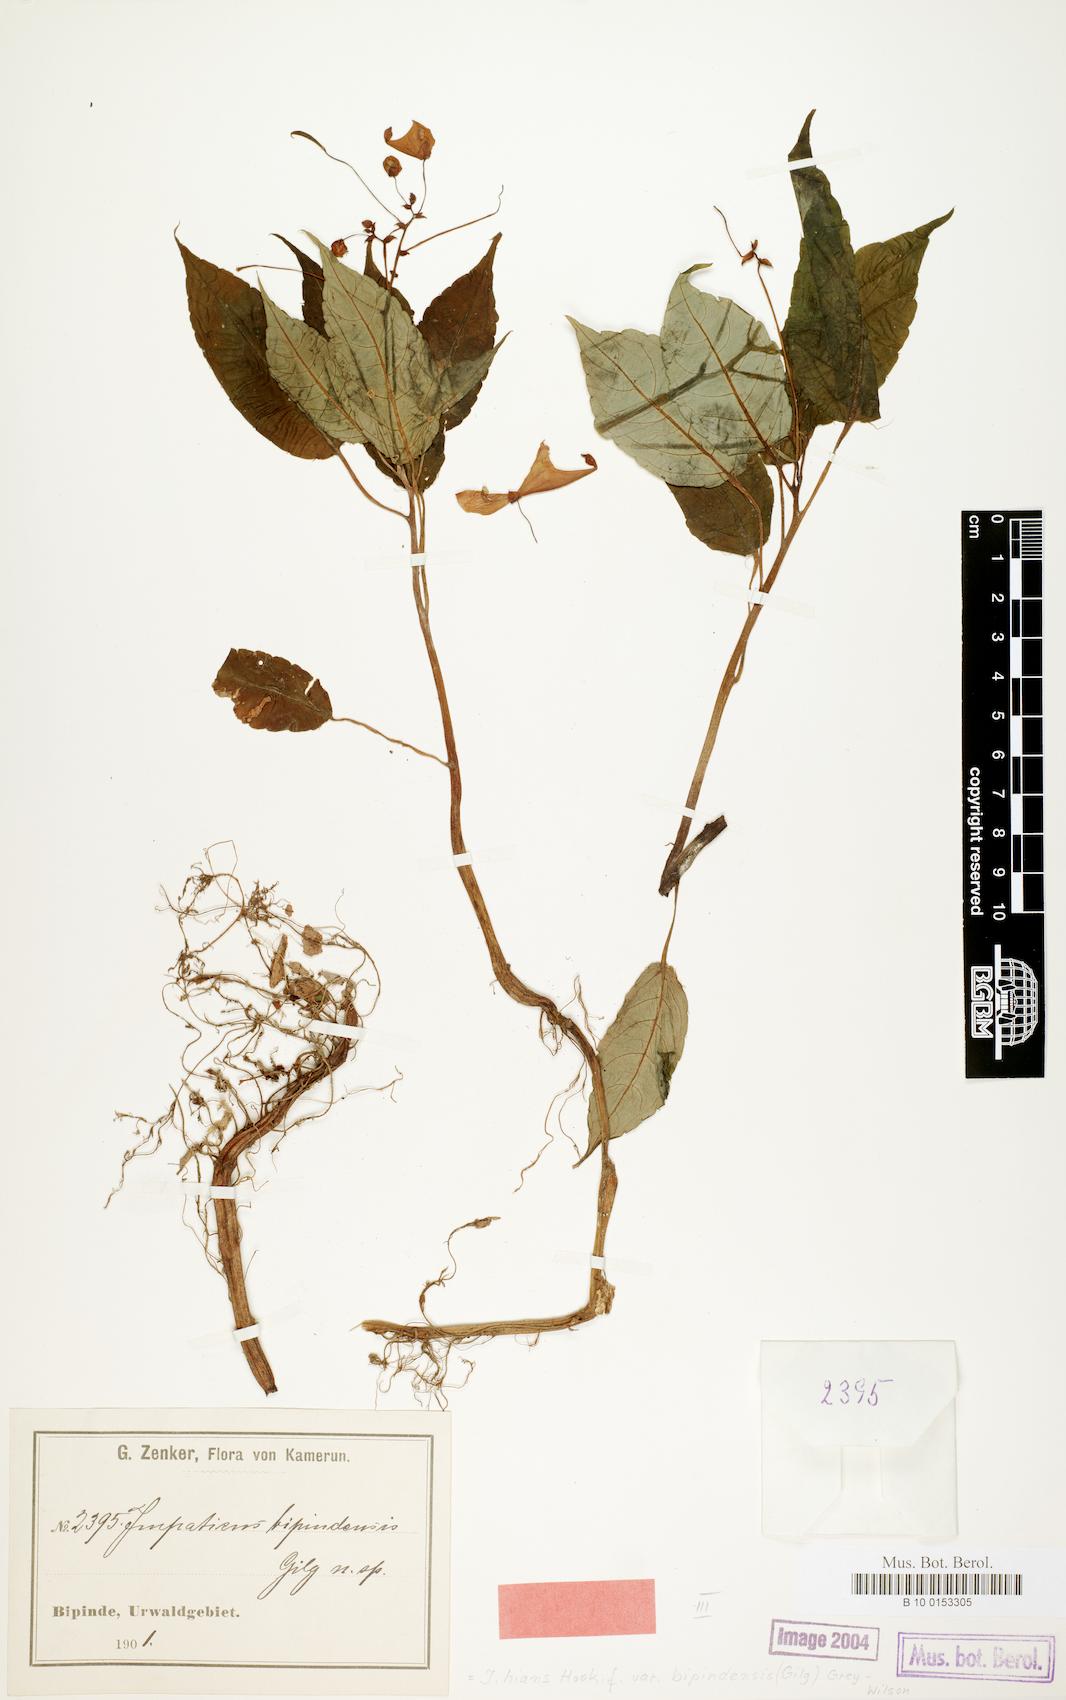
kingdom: Plantae
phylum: Tracheophyta
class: Magnoliopsida
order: Ericales
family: Balsaminaceae
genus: Impatiens
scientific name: Impatiens hians
